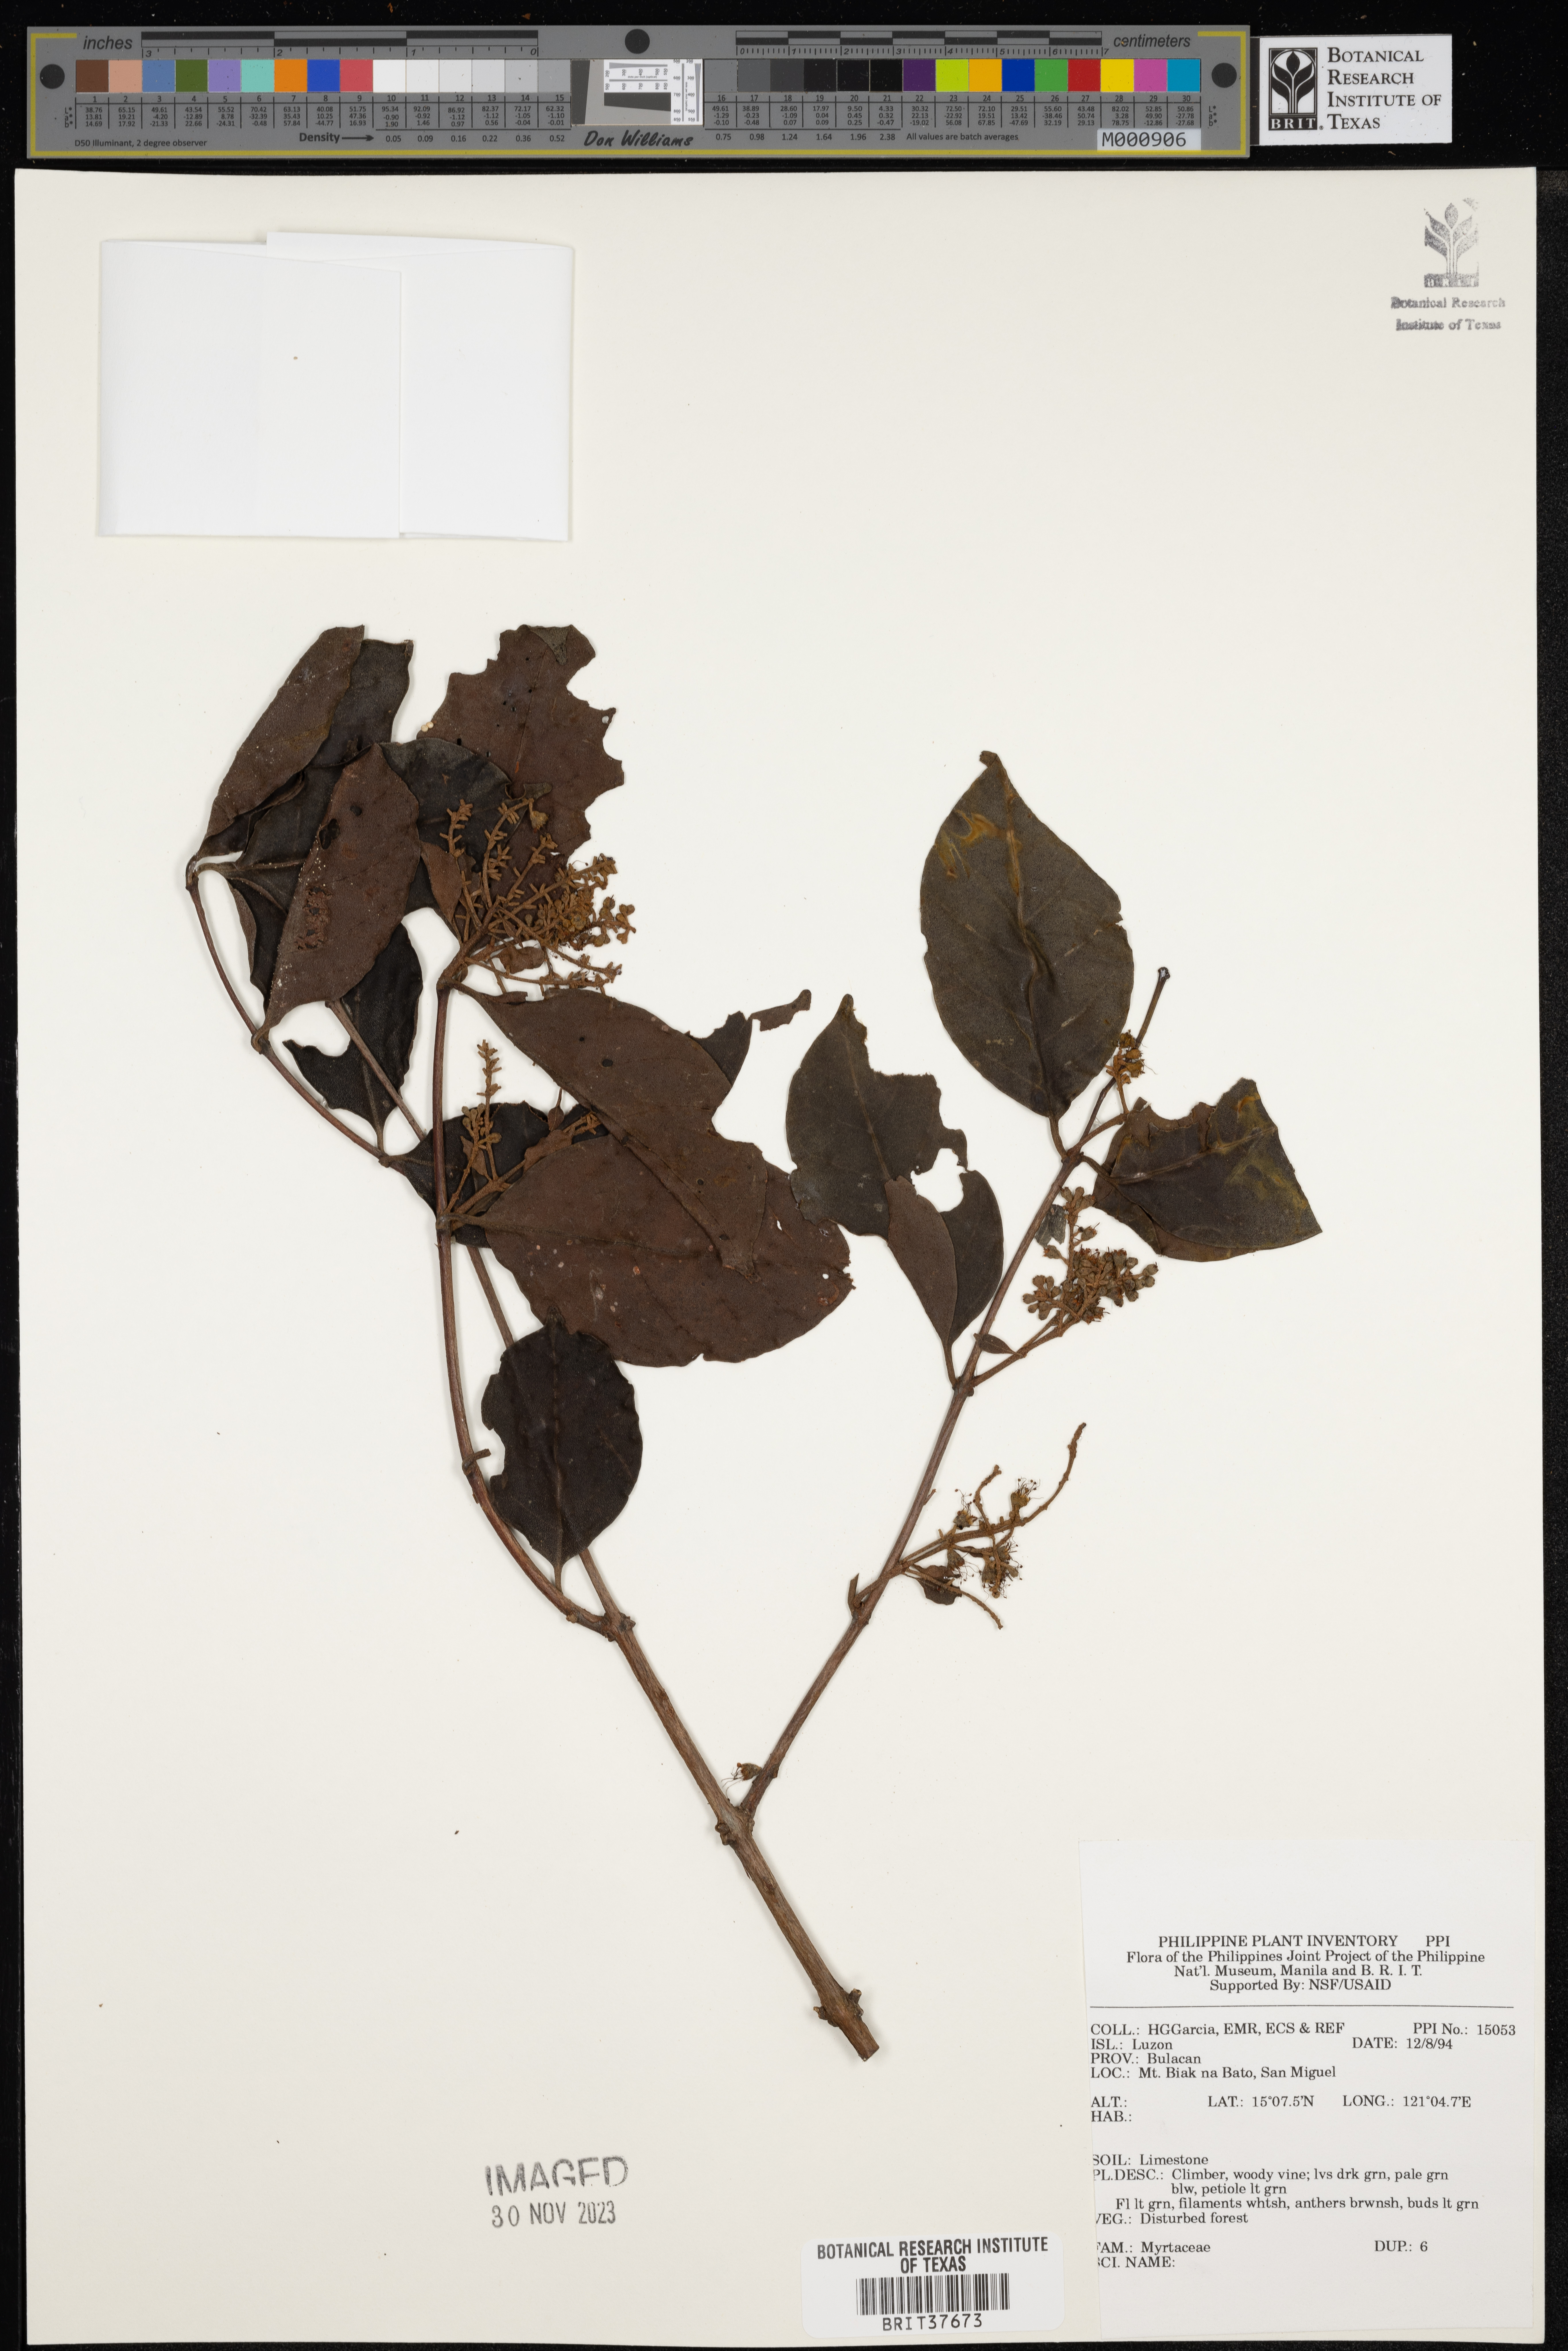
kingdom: Plantae
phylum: Tracheophyta
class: Magnoliopsida
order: Myrtales
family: Myrtaceae
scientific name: Myrtaceae
